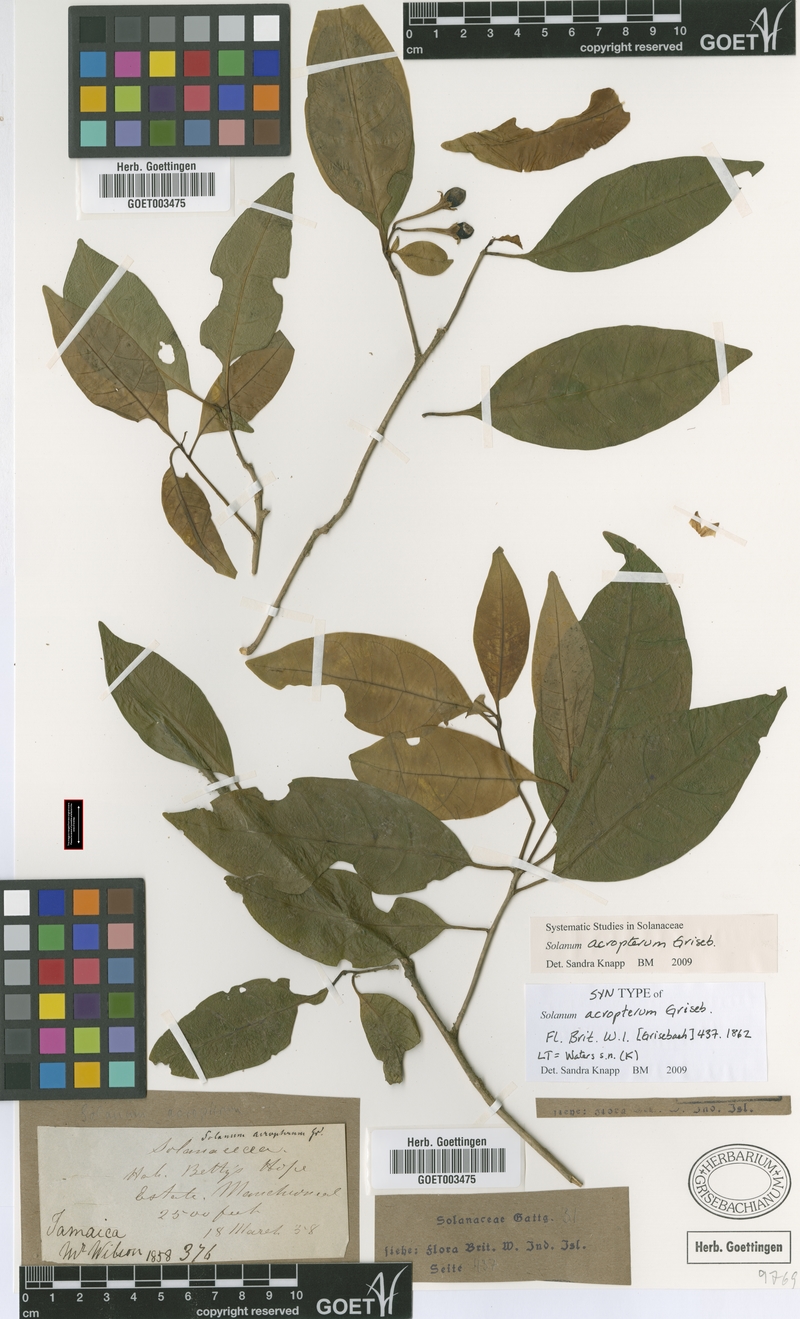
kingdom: Plantae
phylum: Tracheophyta
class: Magnoliopsida
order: Solanales
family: Solanaceae
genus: Solanum
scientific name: Solanum acropterum
